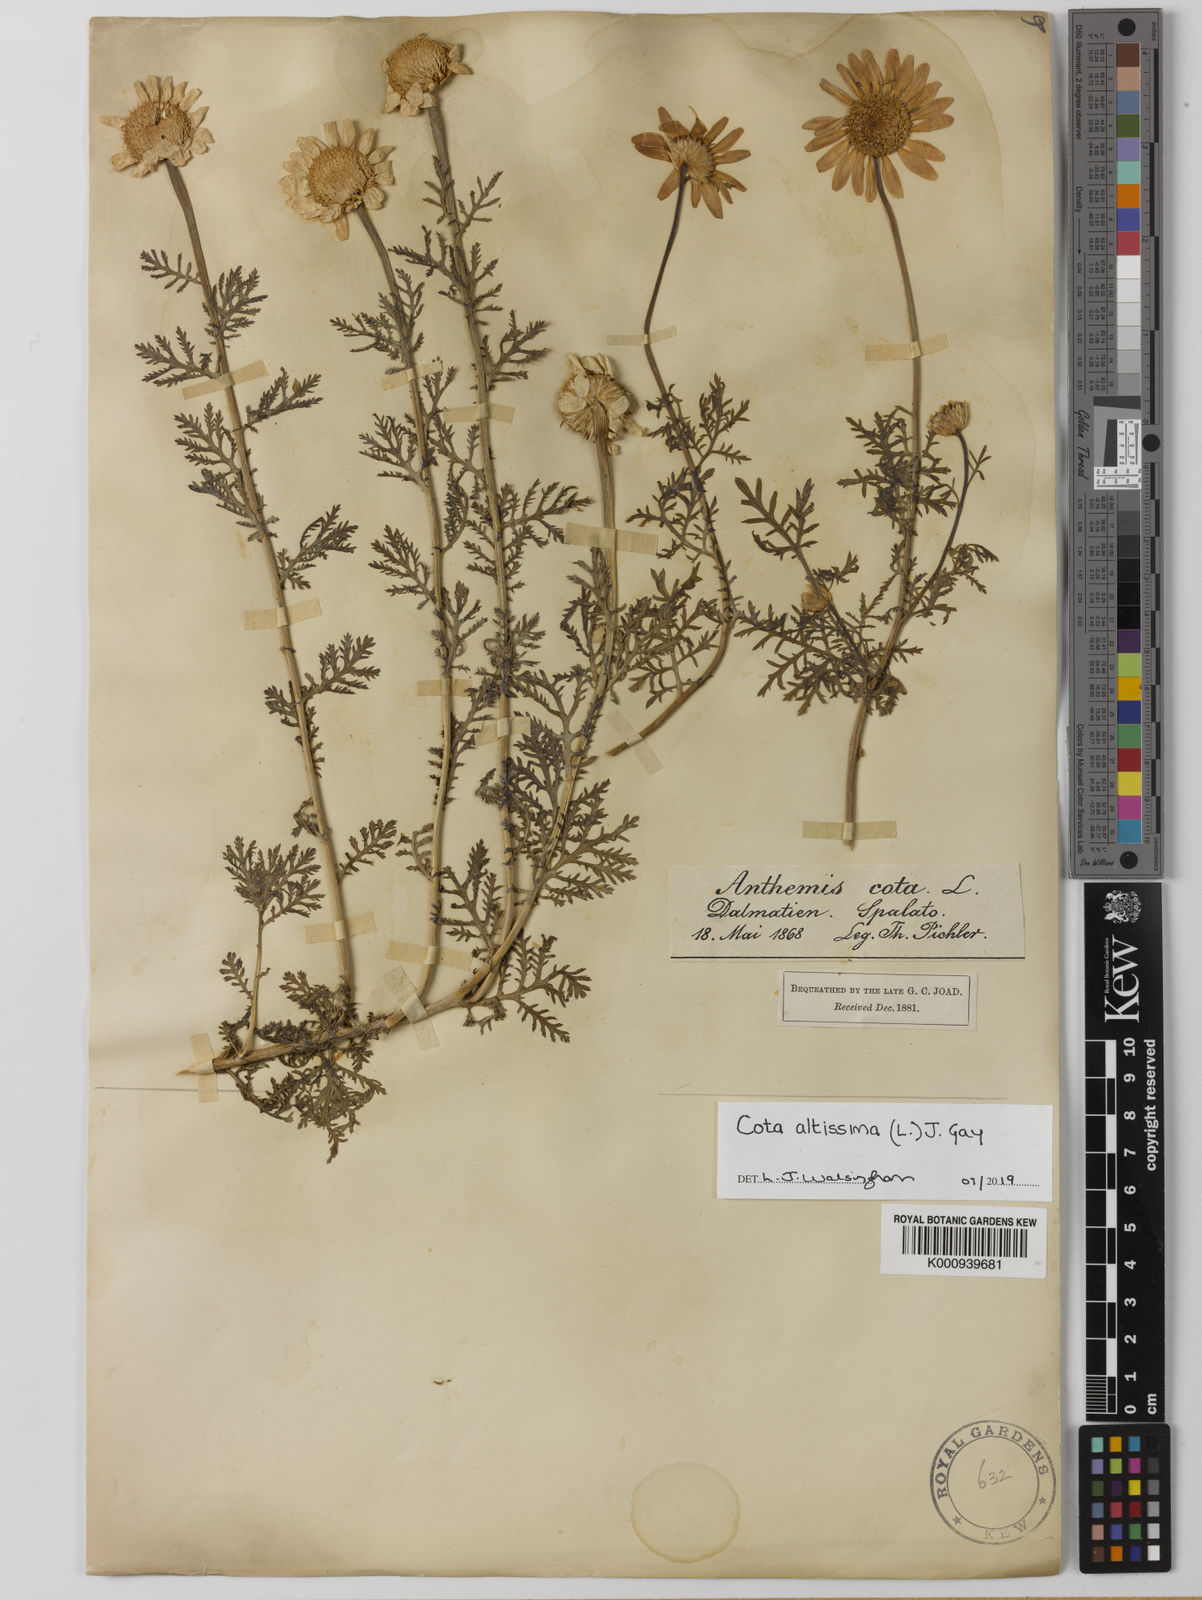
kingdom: Plantae
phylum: Tracheophyta
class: Magnoliopsida
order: Asterales
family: Asteraceae
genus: Cota
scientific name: Cota altissima
